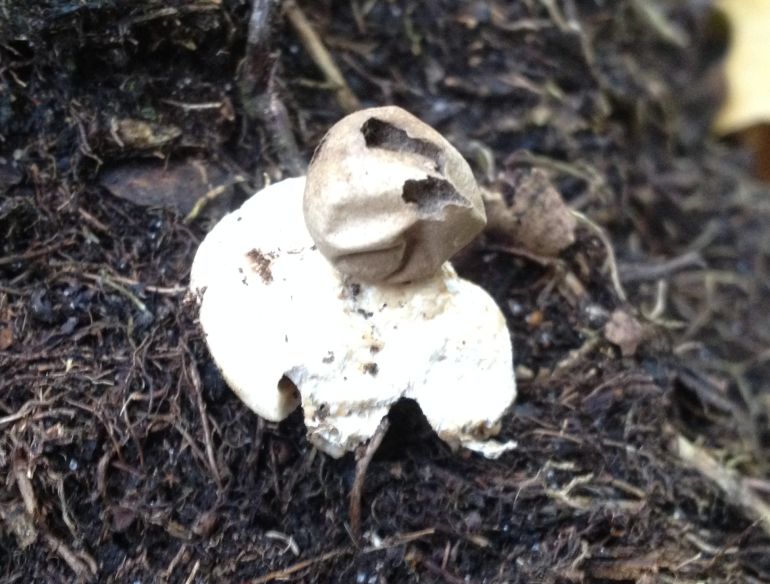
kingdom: Fungi
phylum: Basidiomycota
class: Agaricomycetes
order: Geastrales
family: Geastraceae
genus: Geastrum
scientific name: Geastrum fimbriatum
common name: frynset stjernebold
